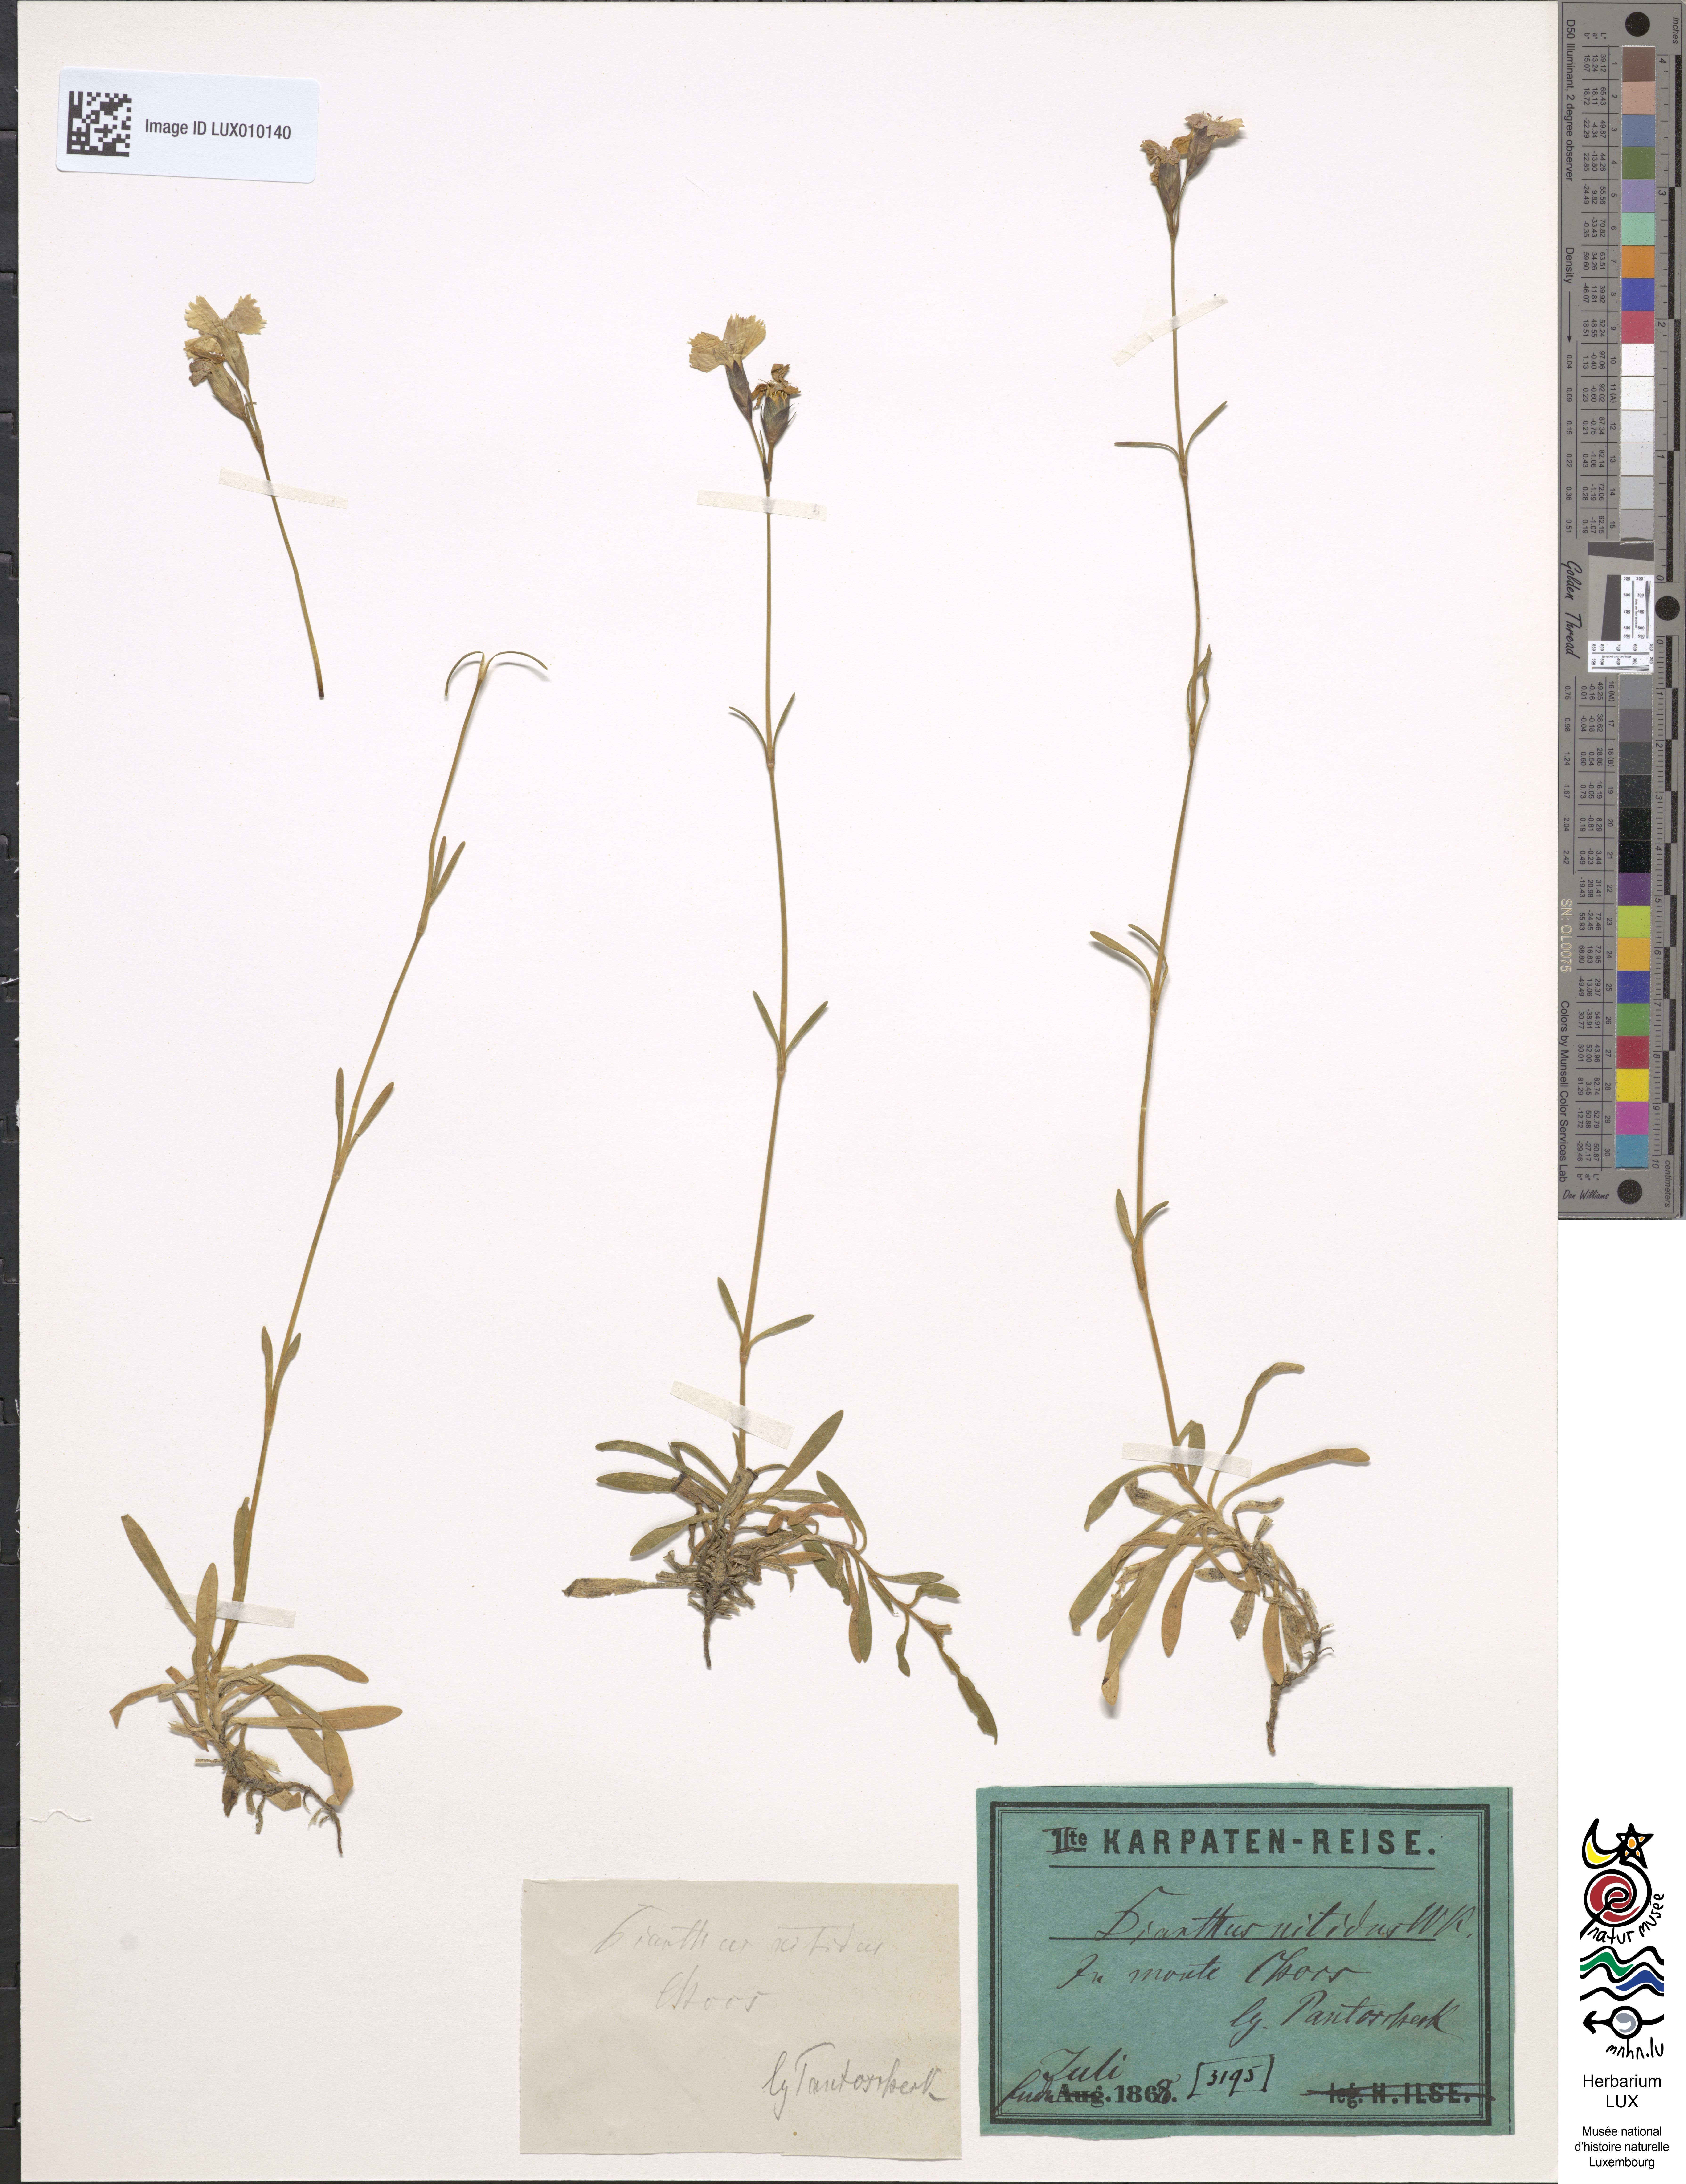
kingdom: Plantae
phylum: Tracheophyta
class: Magnoliopsida
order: Caryophyllales
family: Caryophyllaceae
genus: Dianthus
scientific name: Dianthus nitidus
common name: Carpathian glossy pink
